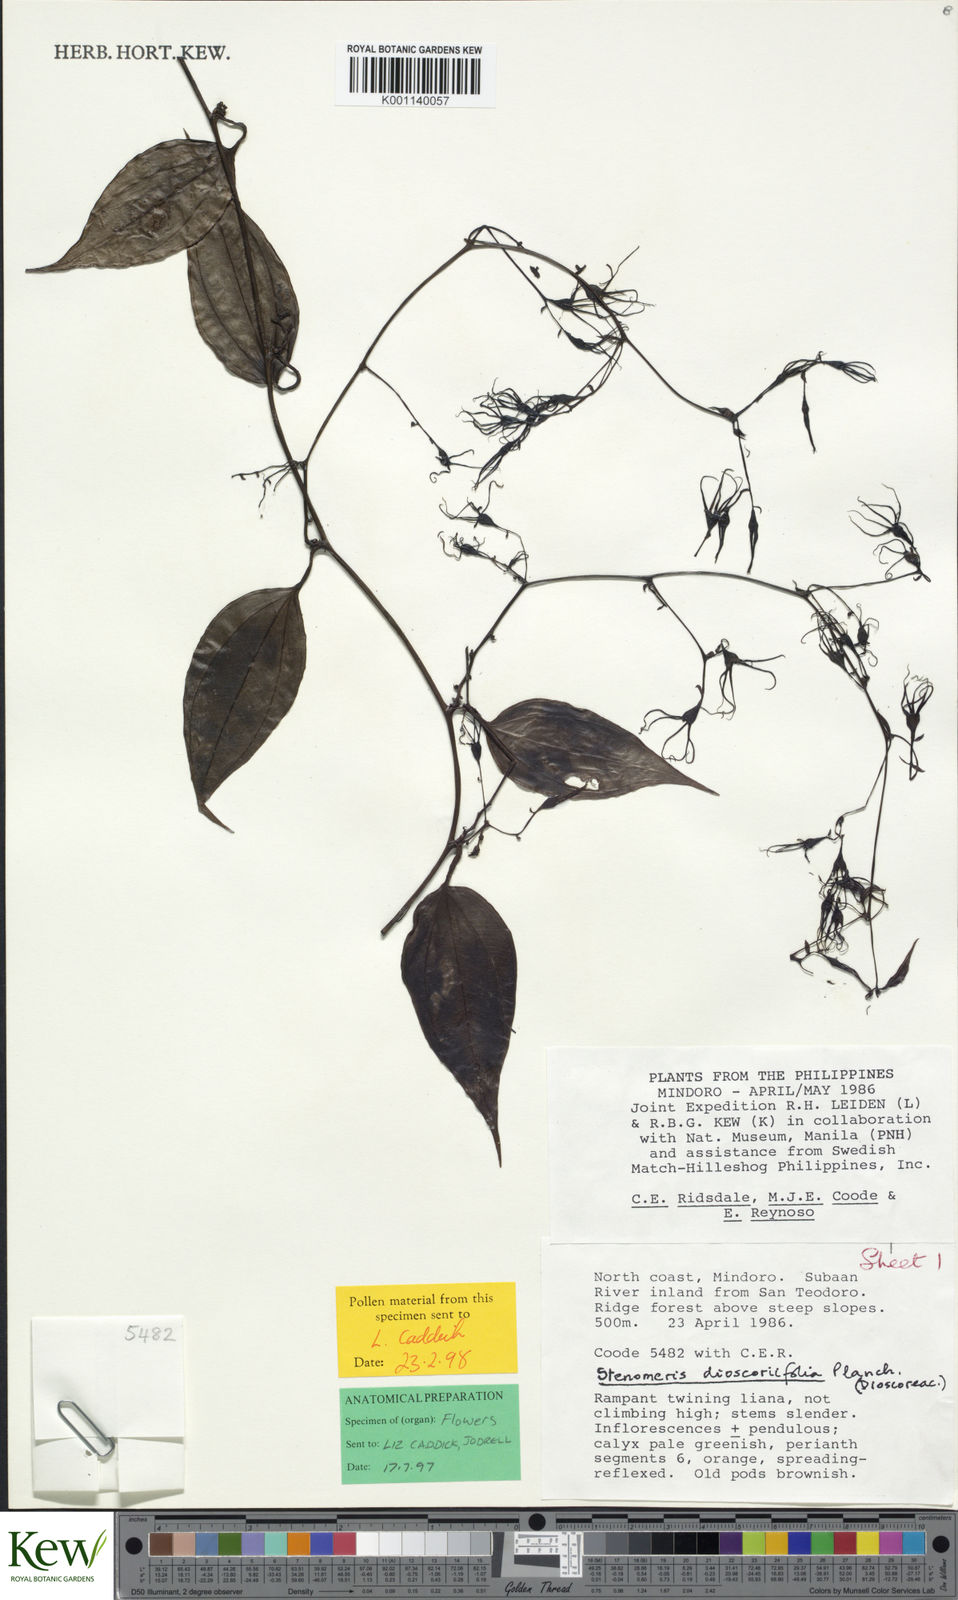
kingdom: Plantae
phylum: Tracheophyta
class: Liliopsida
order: Dioscoreales
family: Dioscoreaceae
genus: Stenomeris
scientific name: Stenomeris dioscoreifolia
